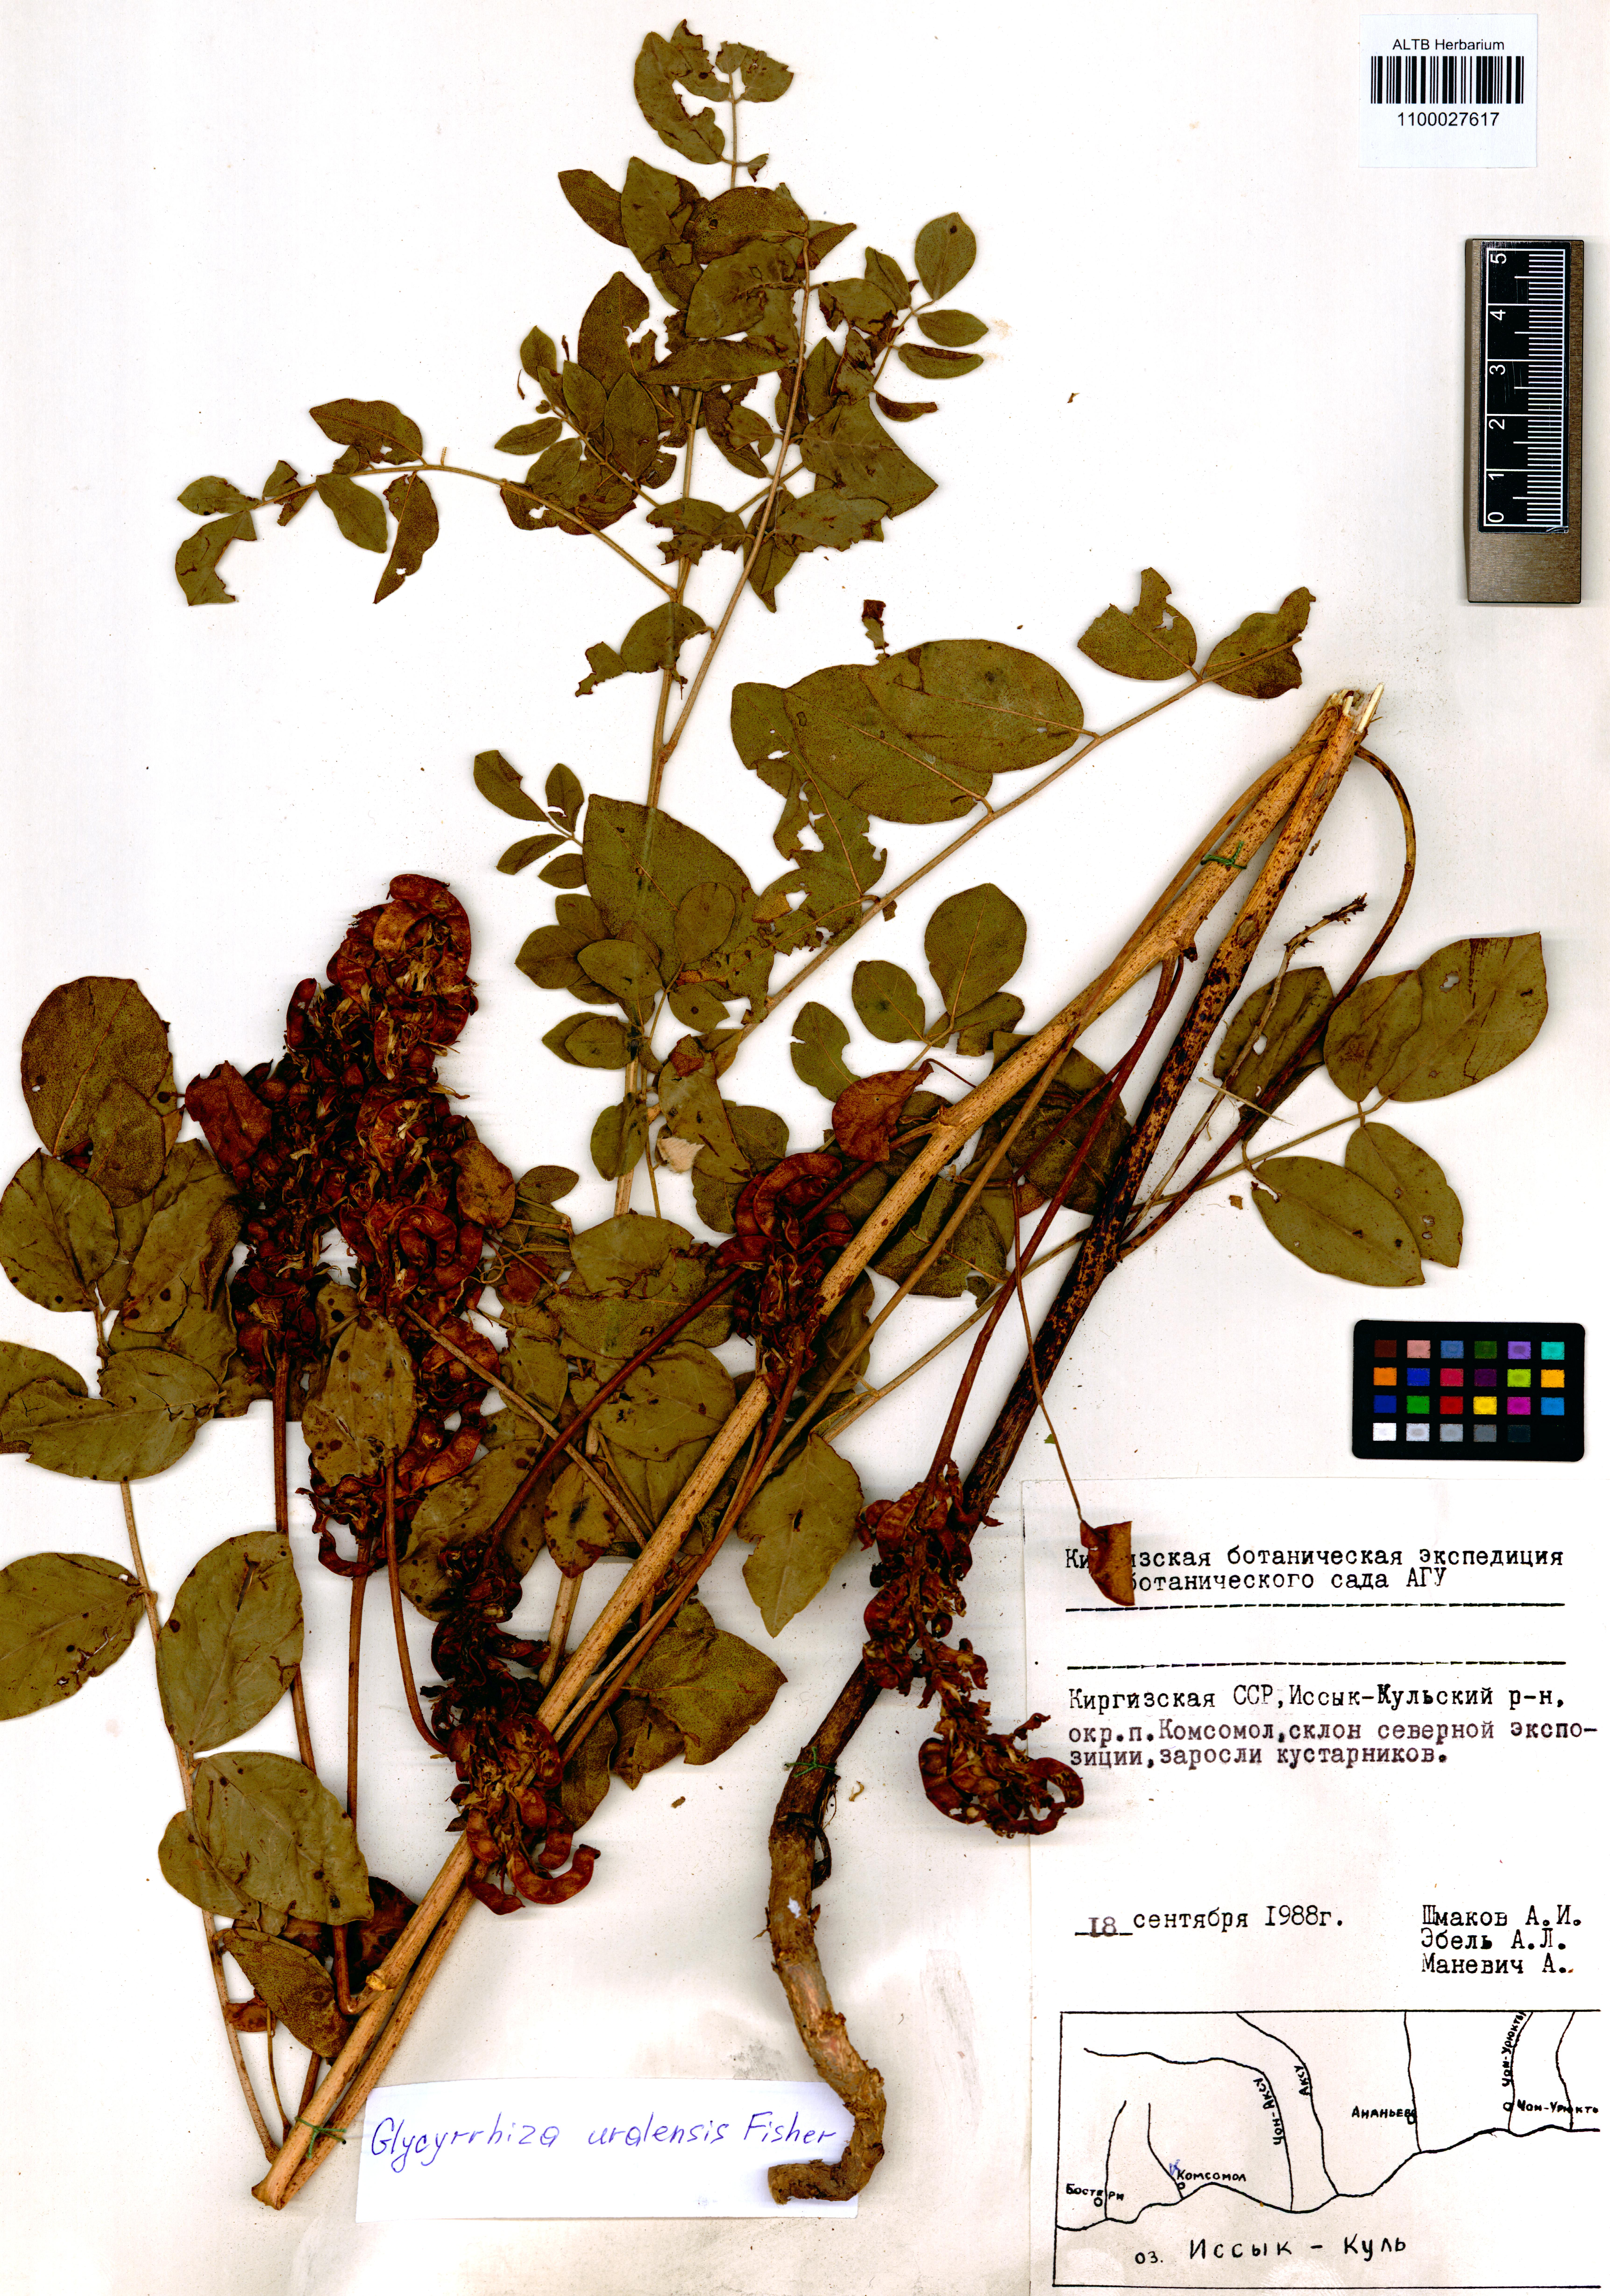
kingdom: Plantae
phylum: Tracheophyta
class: Magnoliopsida
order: Fabales
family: Fabaceae
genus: Glycyrrhiza
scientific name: Glycyrrhiza uralensis
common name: Chinese licorice
